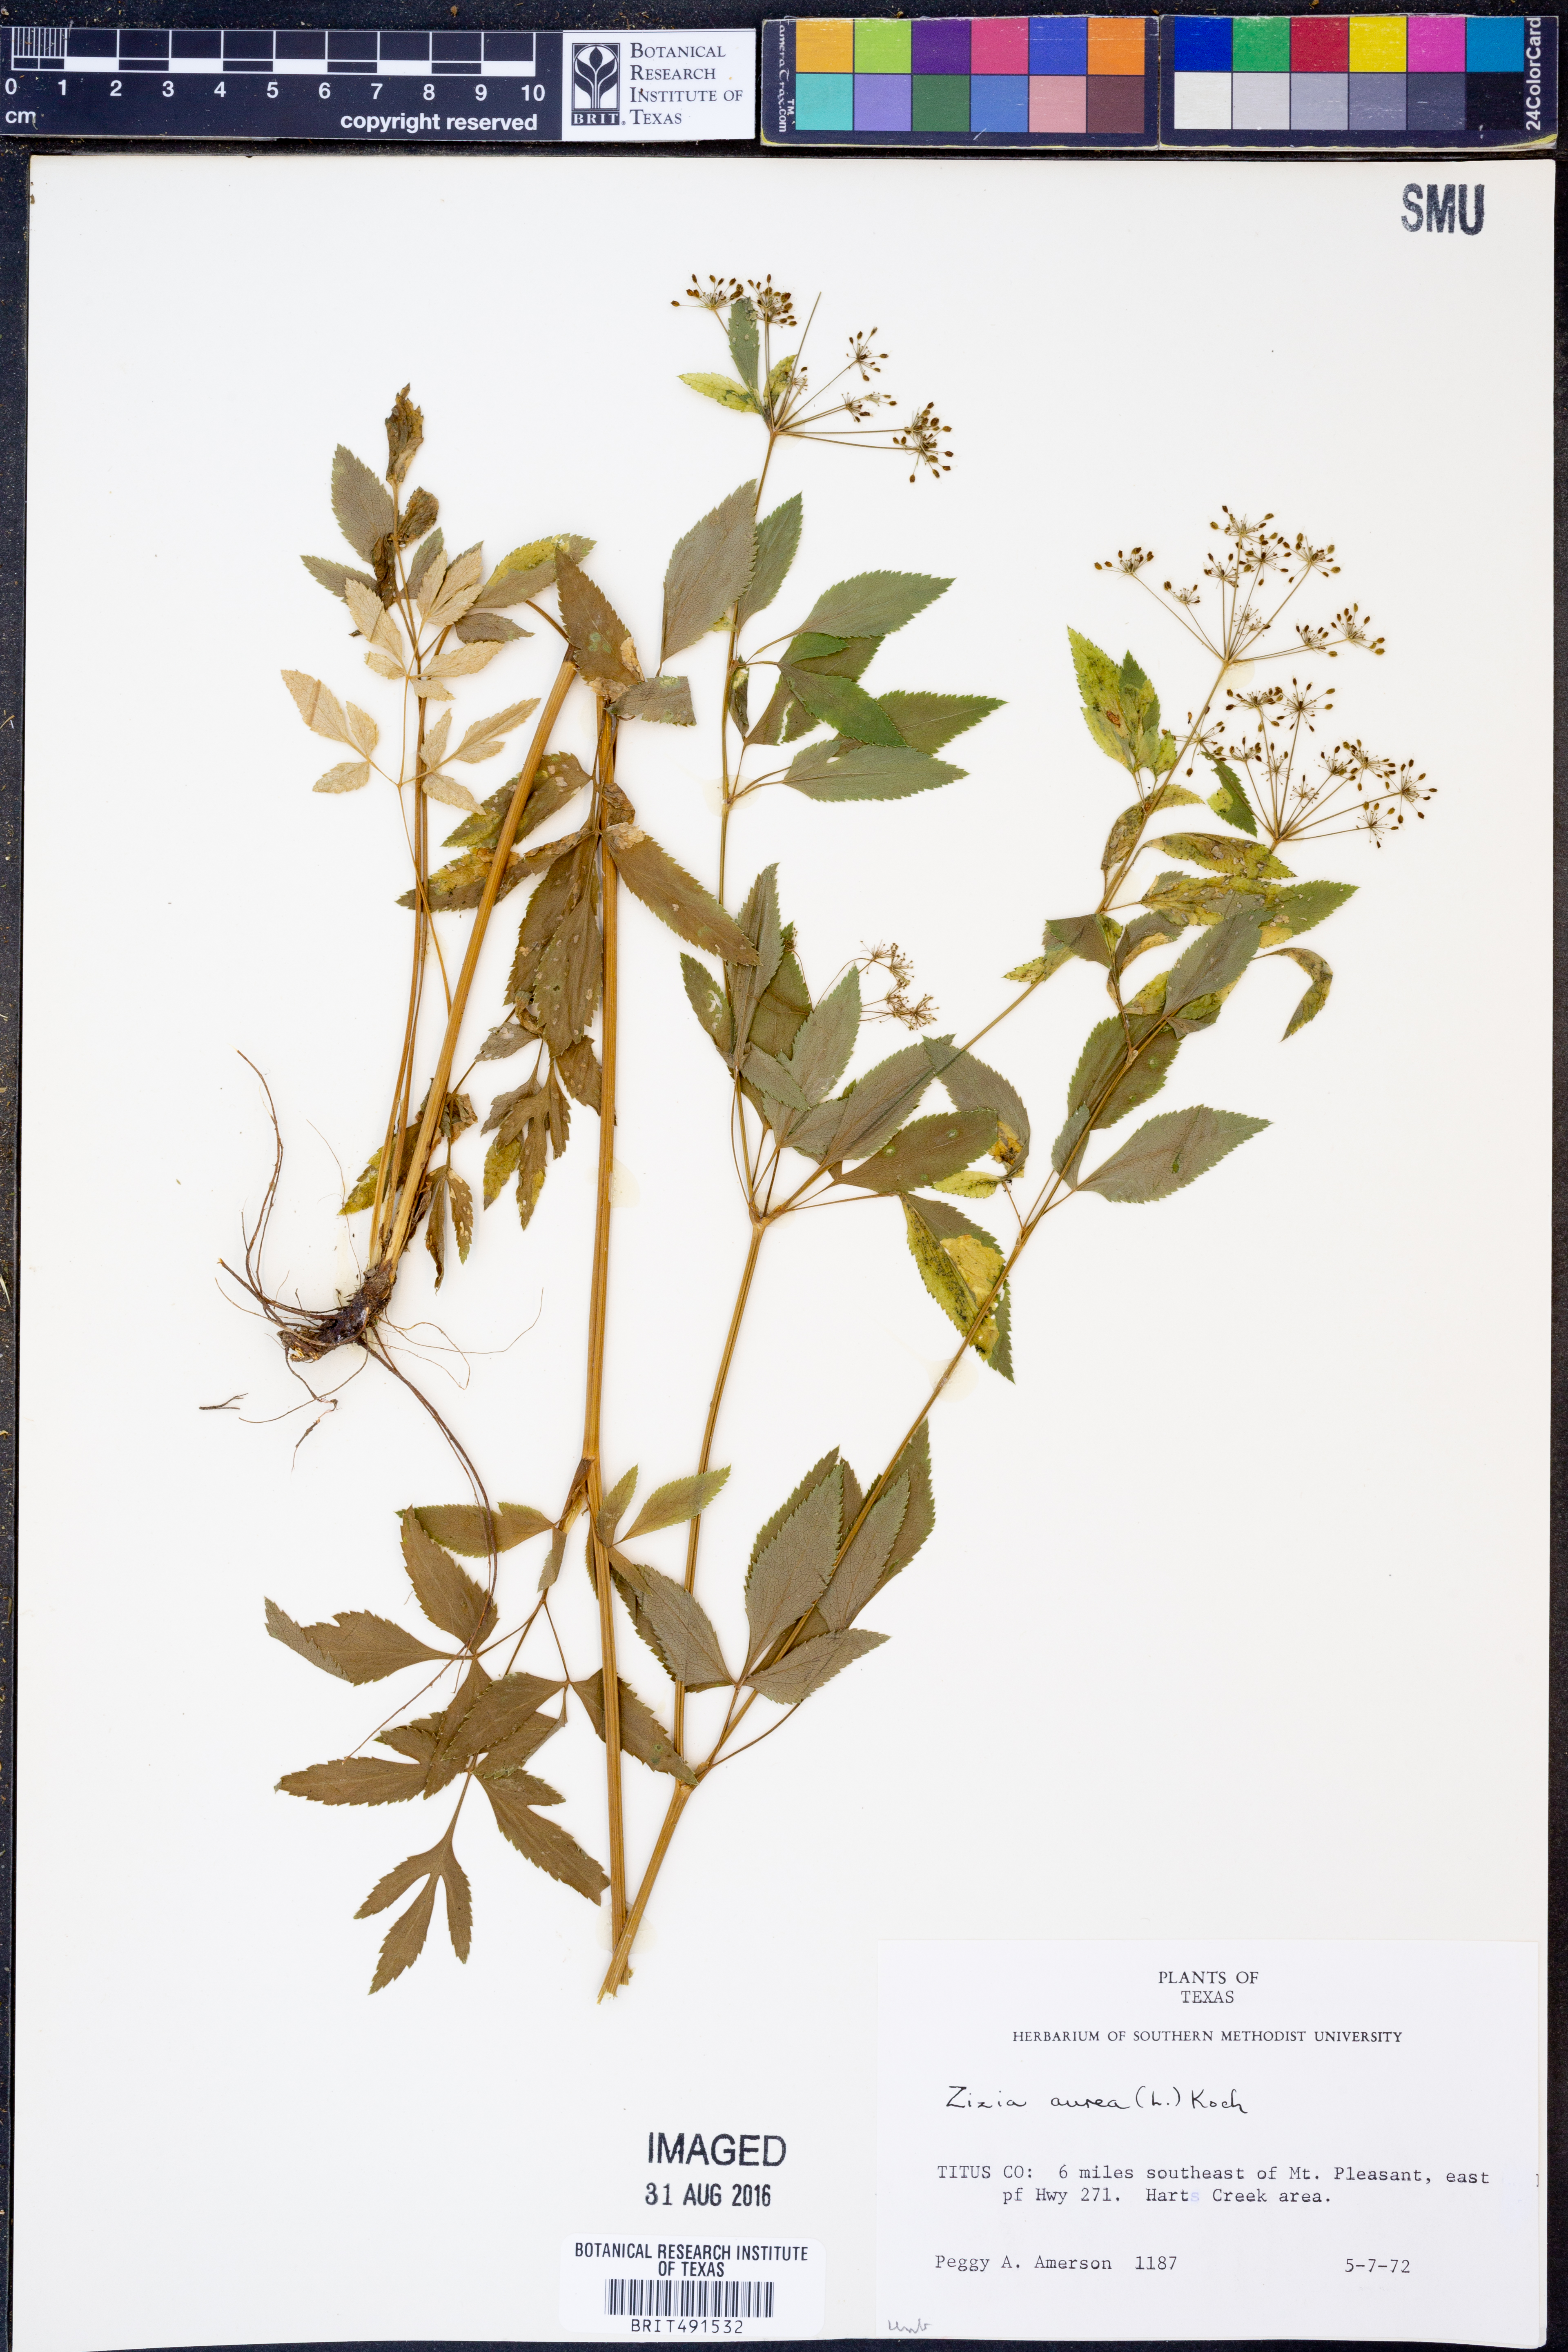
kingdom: Plantae
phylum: Tracheophyta
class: Magnoliopsida
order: Apiales
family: Apiaceae
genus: Zizia
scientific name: Zizia aurea
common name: Golden alexanders
